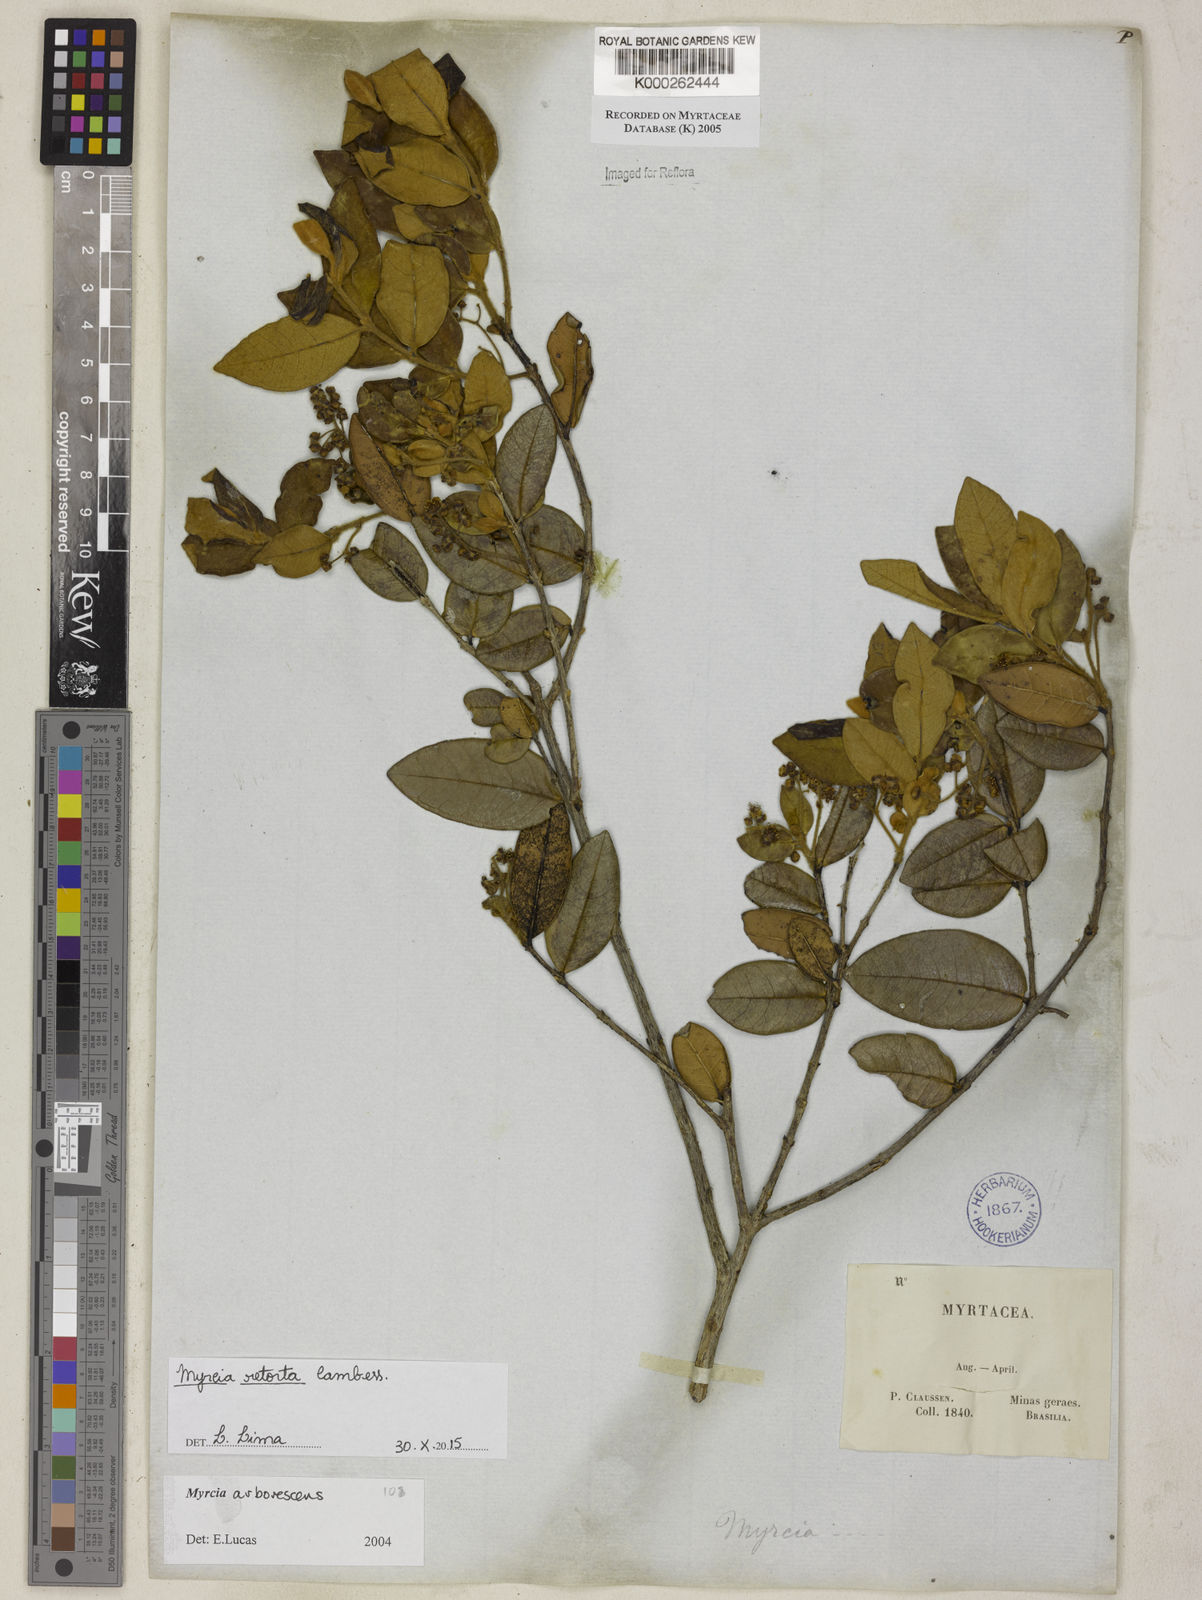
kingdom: Plantae
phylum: Tracheophyta
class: Magnoliopsida
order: Myrtales
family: Myrtaceae
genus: Myrcia
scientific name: Myrcia retorta
